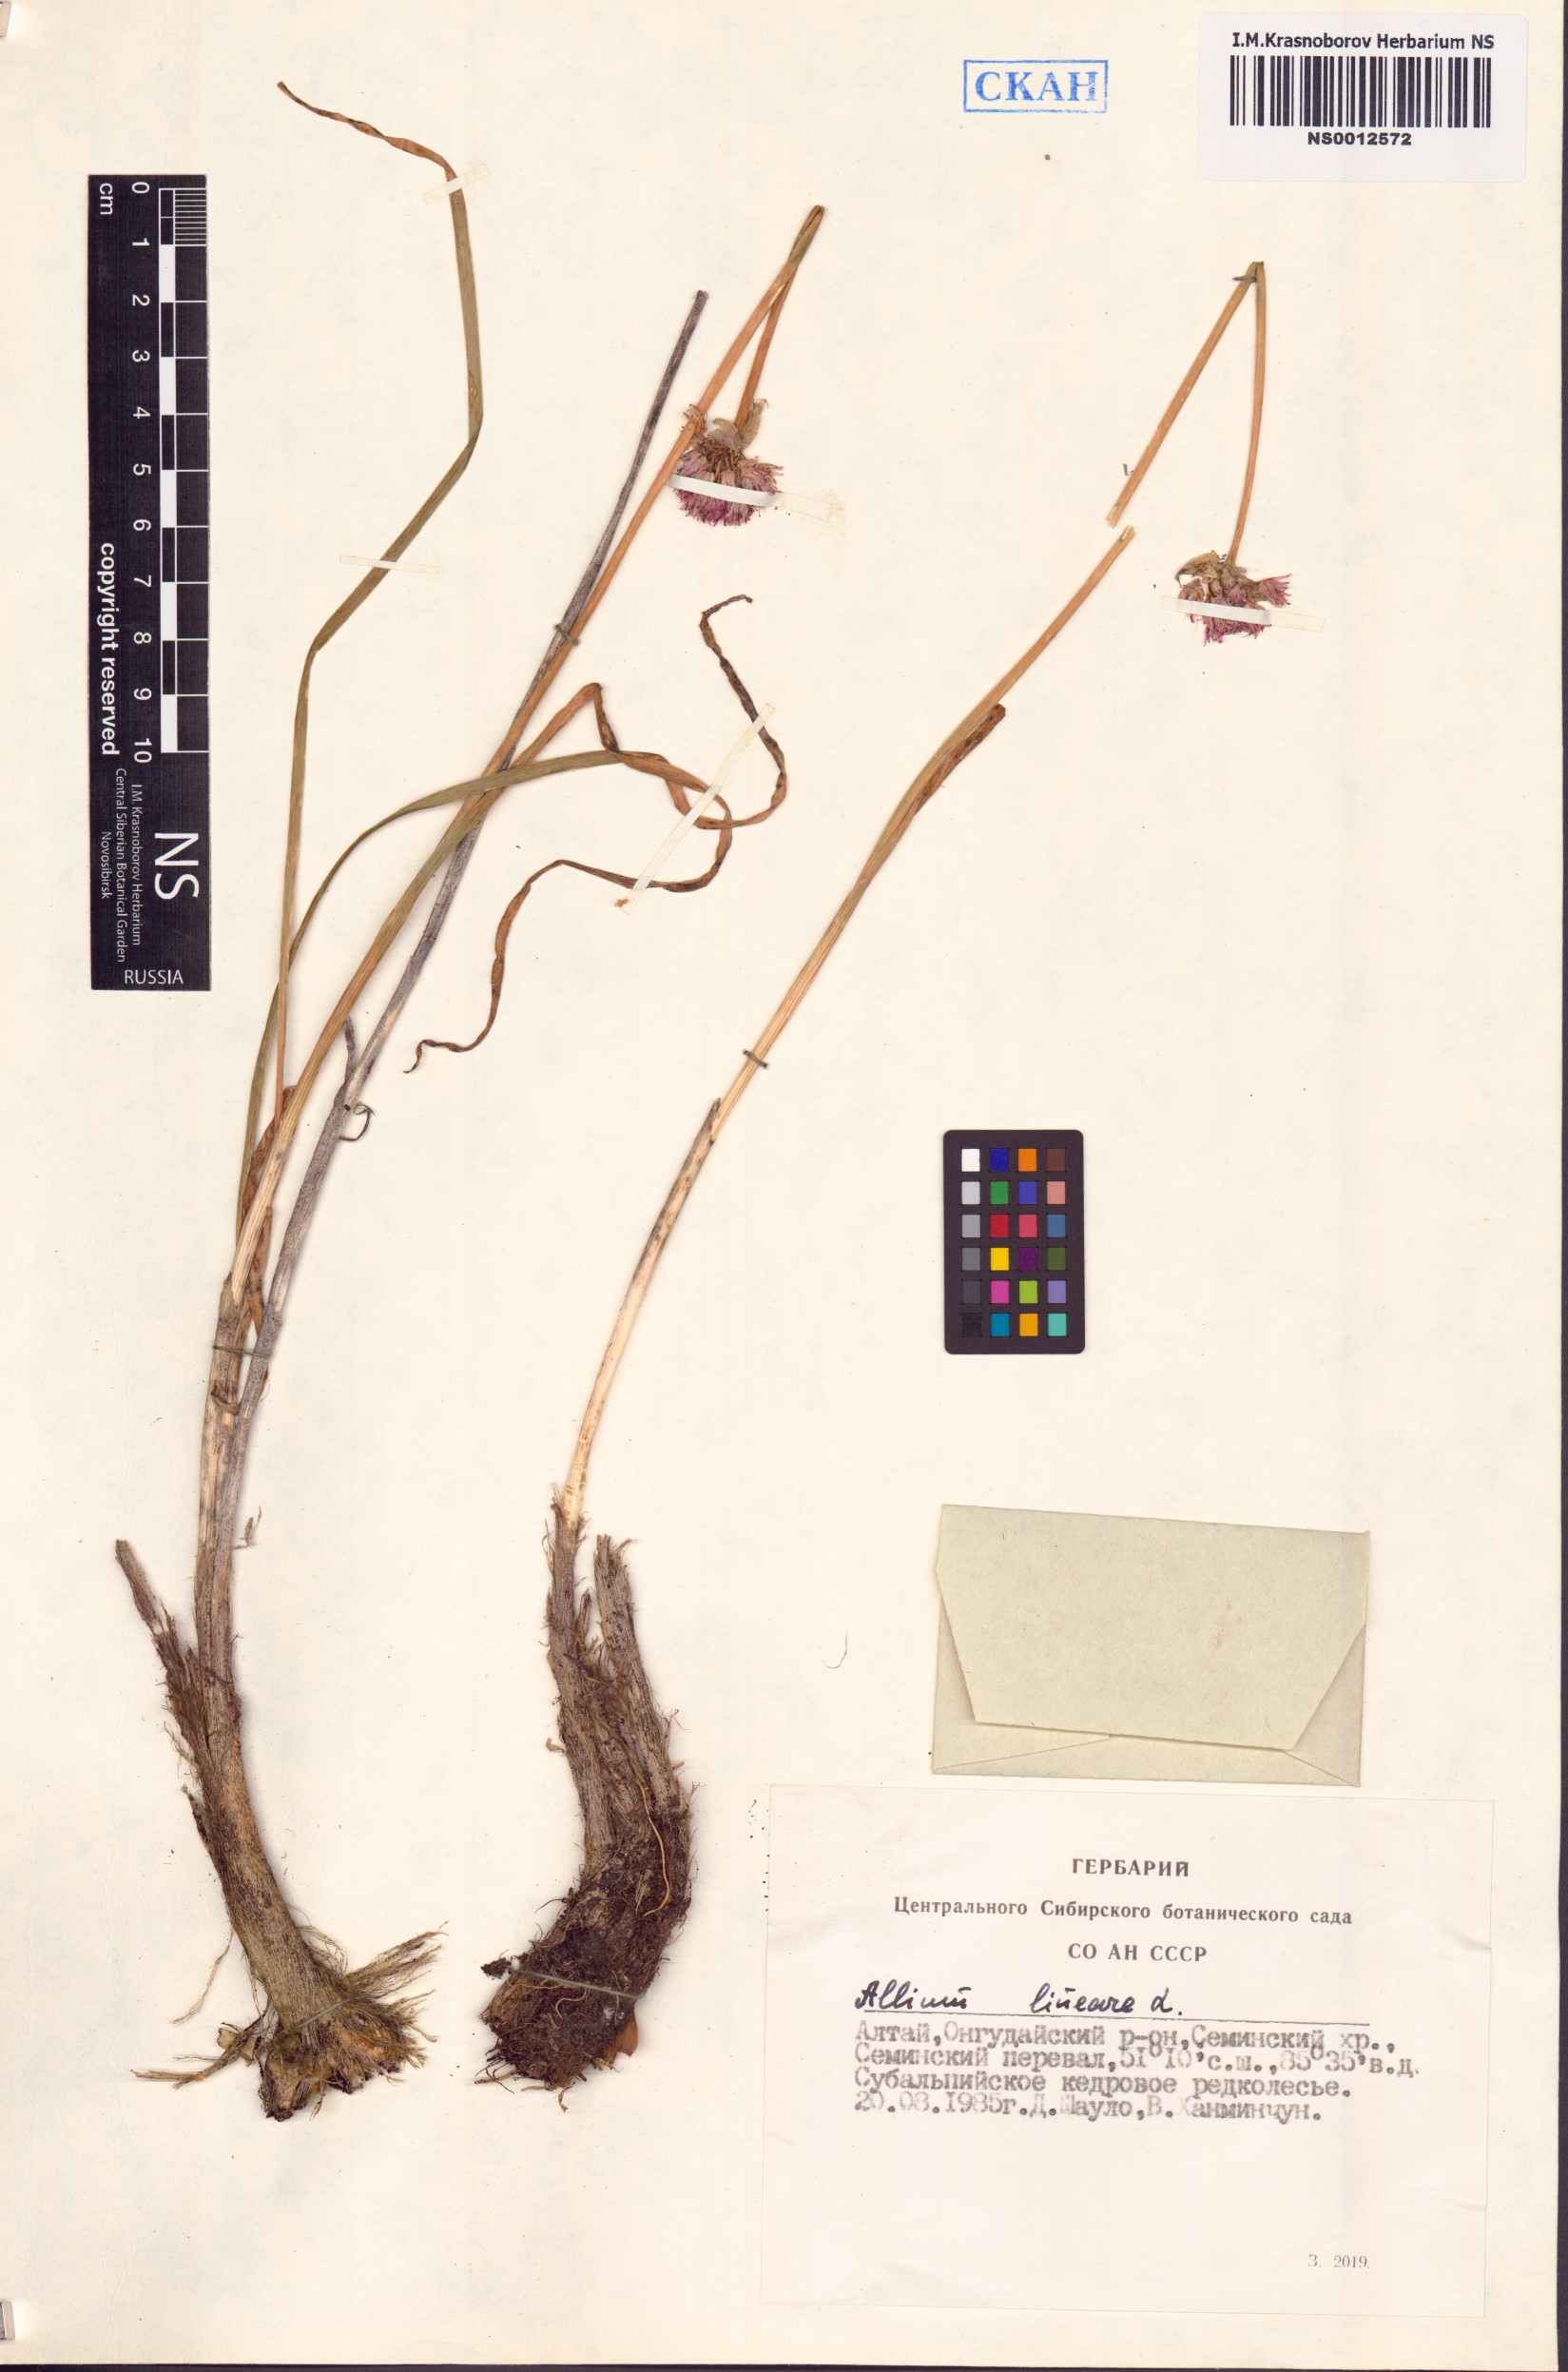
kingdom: Plantae
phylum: Tracheophyta
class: Liliopsida
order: Asparagales
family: Amaryllidaceae
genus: Allium
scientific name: Allium lineare
